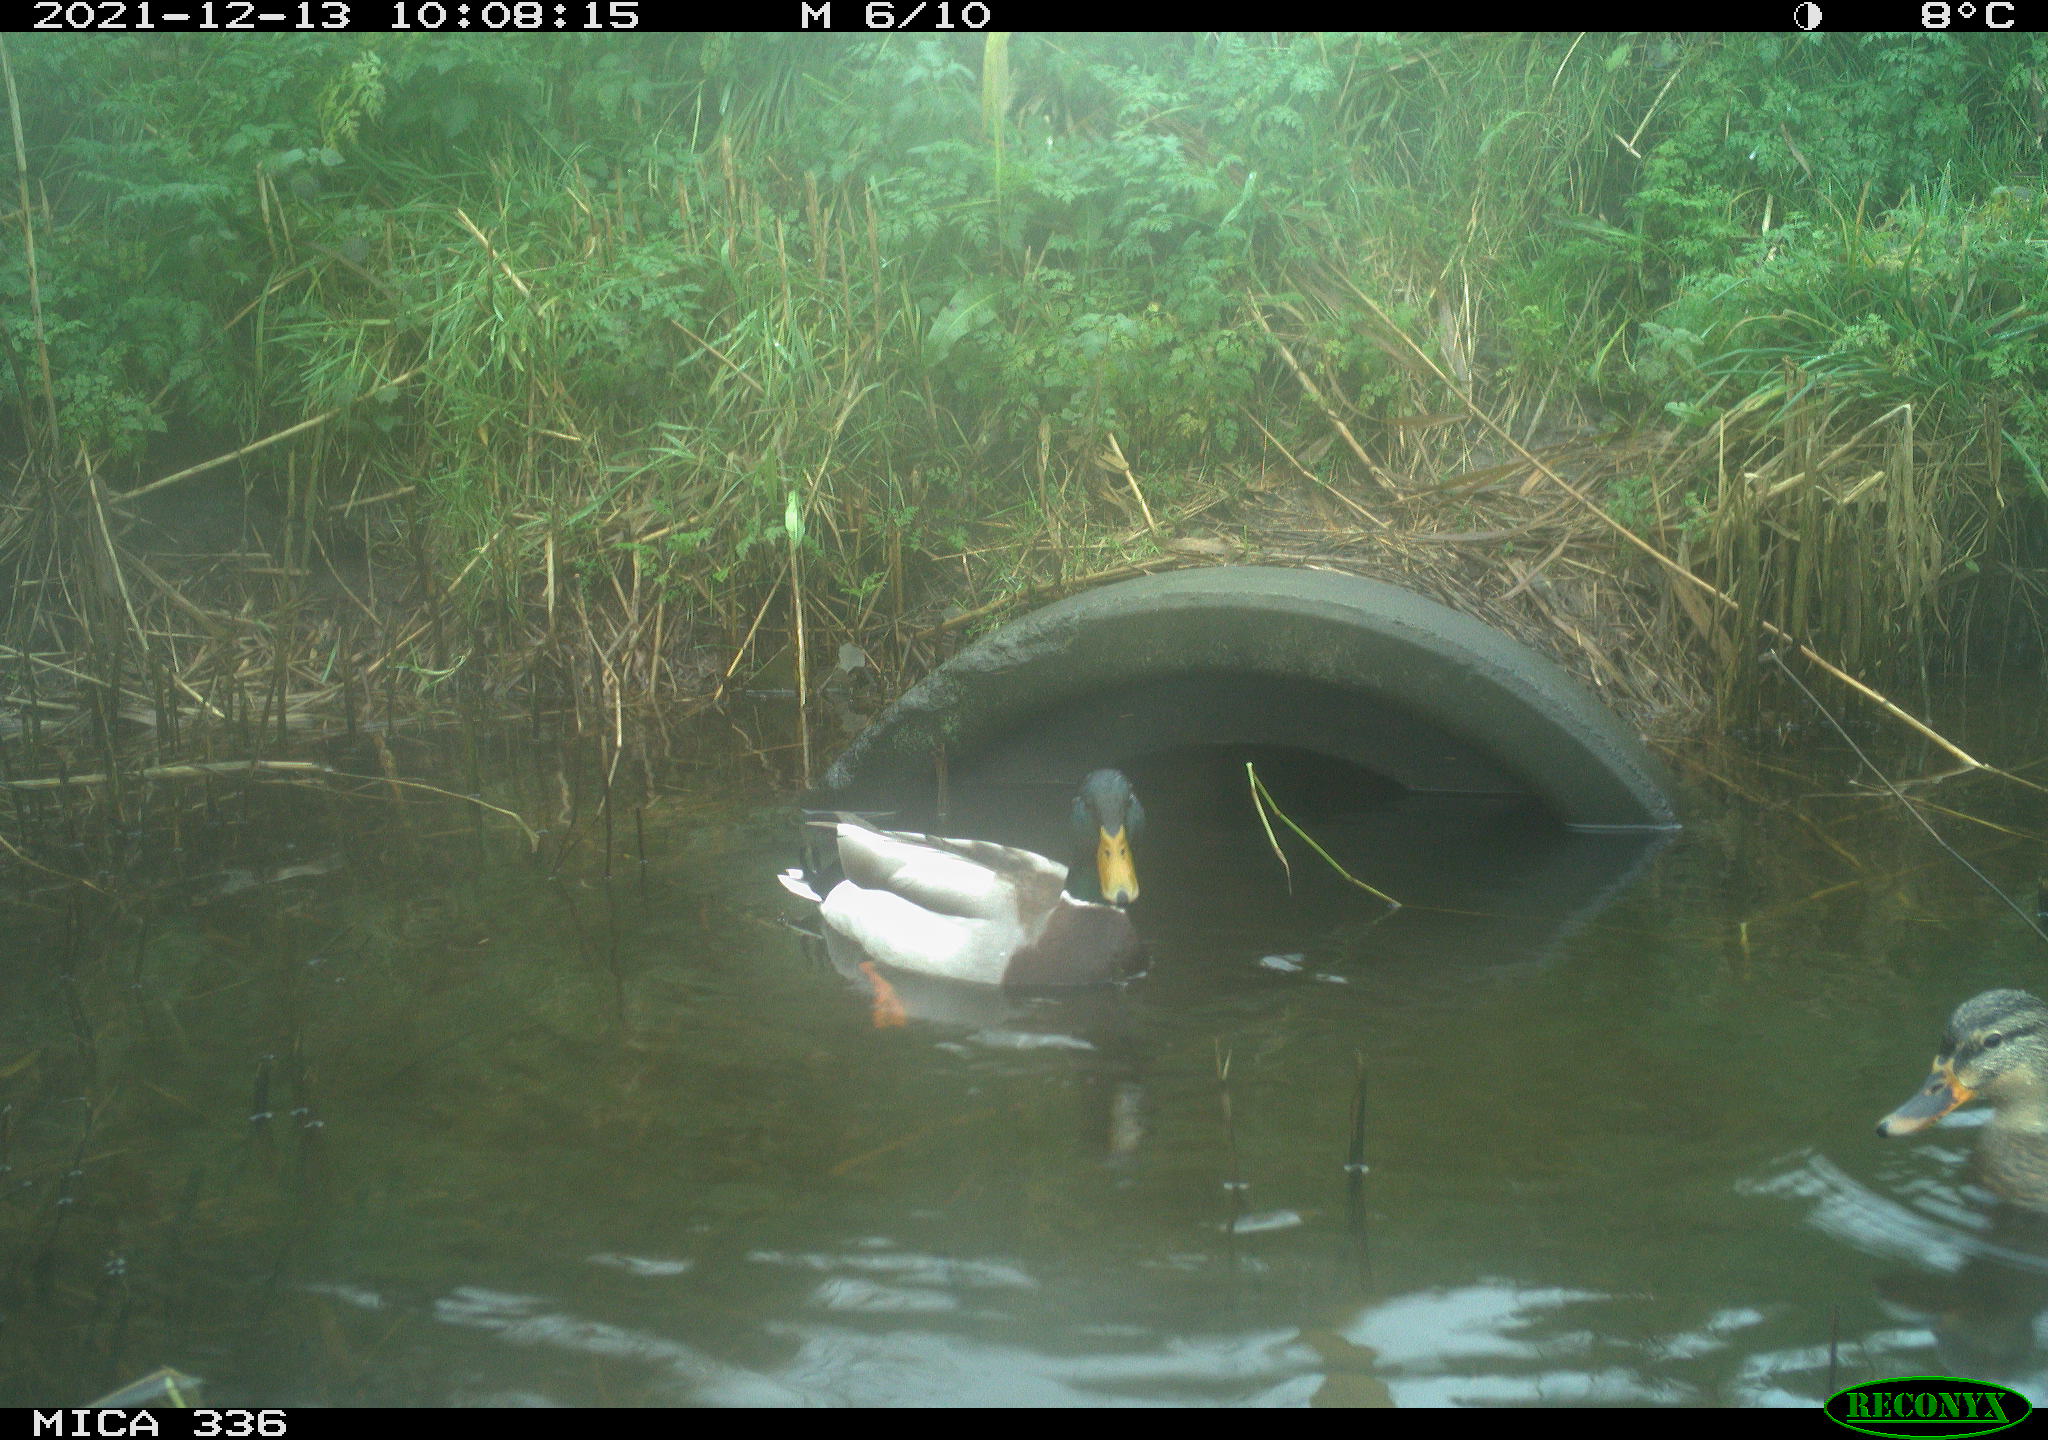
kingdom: Animalia
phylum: Chordata
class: Aves
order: Anseriformes
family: Anatidae
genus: Anas
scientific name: Anas platyrhynchos
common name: Mallard
